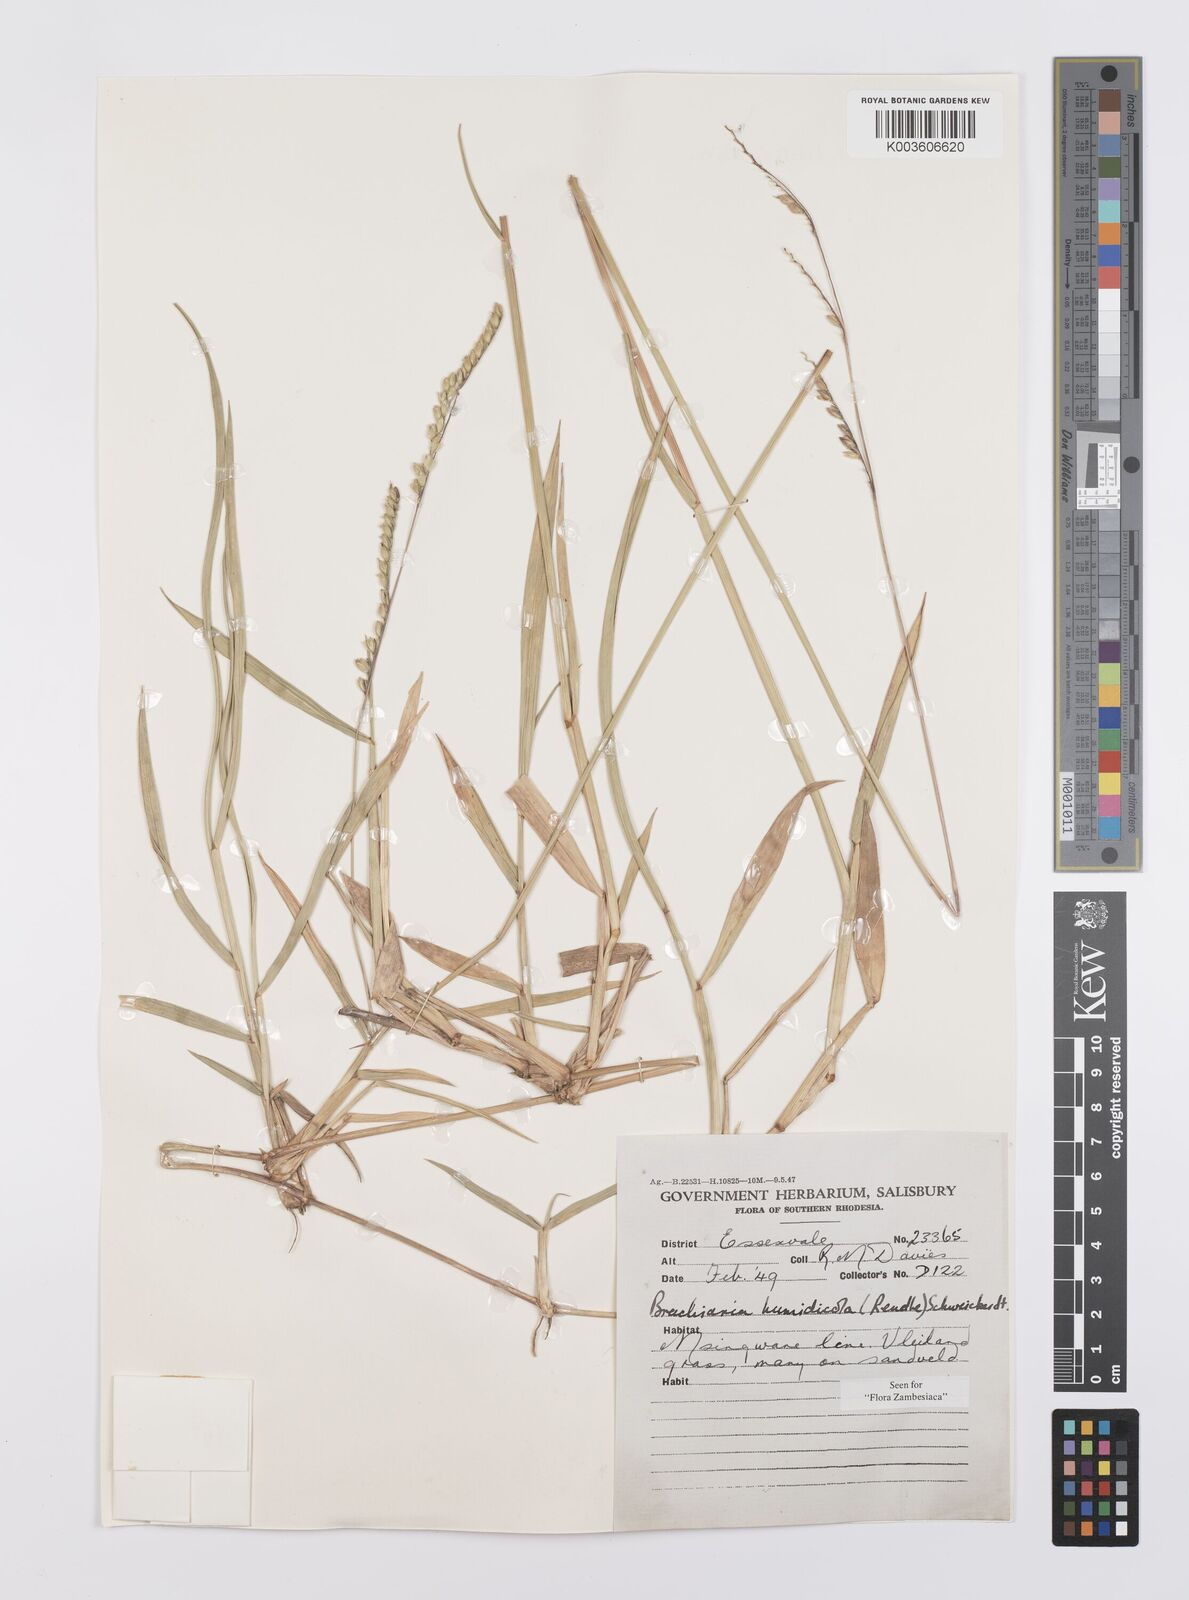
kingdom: Plantae
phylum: Tracheophyta
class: Liliopsida
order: Poales
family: Poaceae
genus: Urochloa
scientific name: Urochloa dictyoneura
